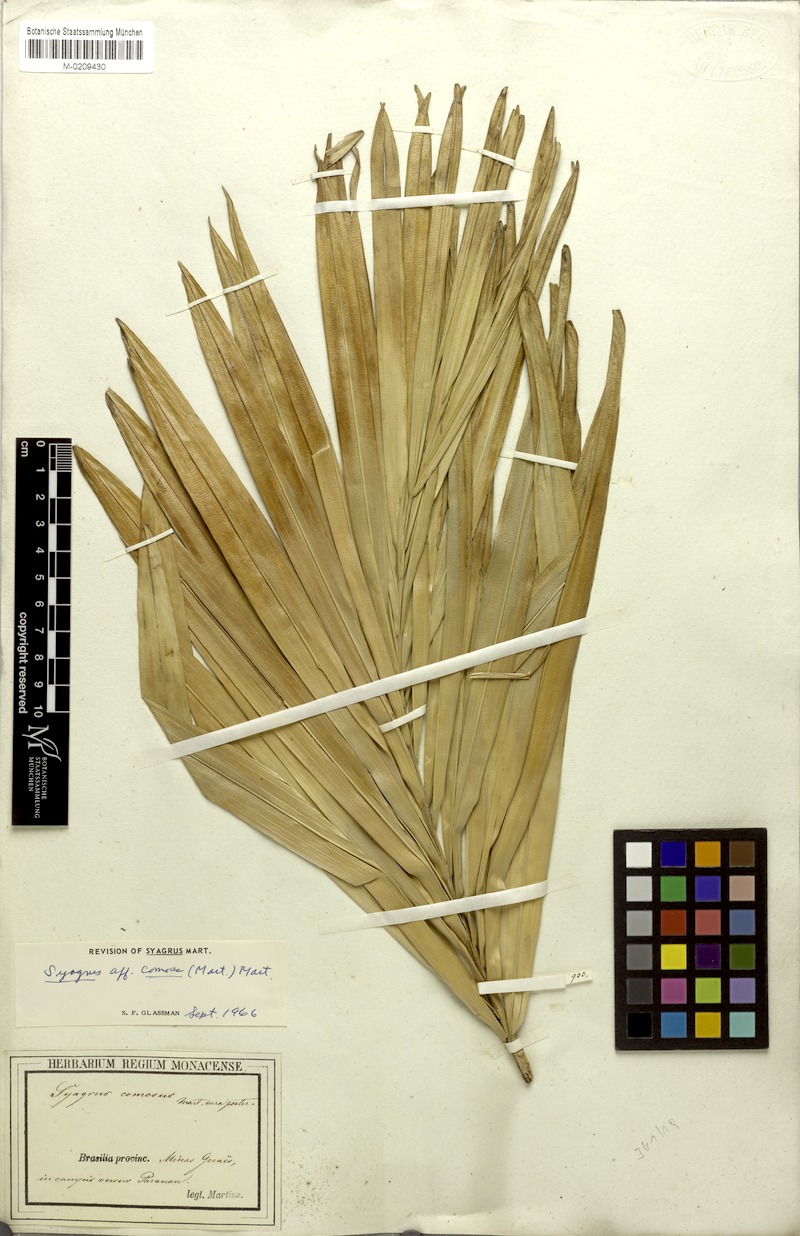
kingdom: Plantae
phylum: Tracheophyta
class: Liliopsida
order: Arecales
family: Arecaceae
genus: Syagrus
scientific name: Syagrus comosa
